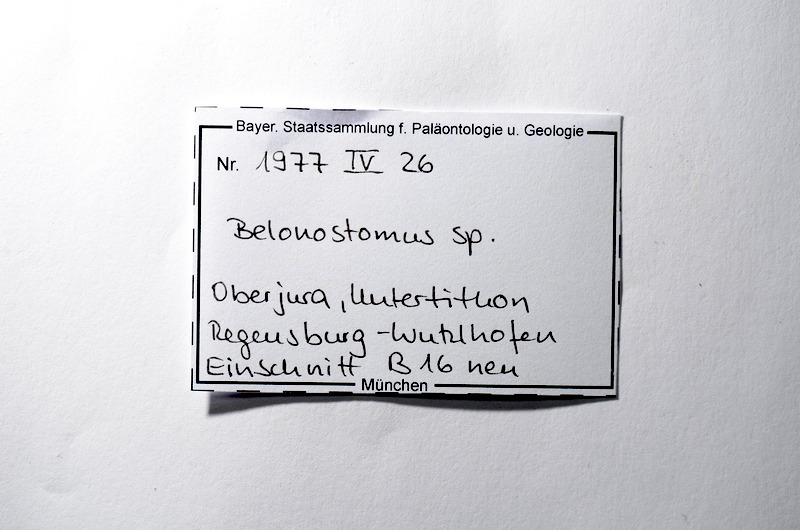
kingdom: Animalia
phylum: Chordata
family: Aspidorhynchidae
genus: Belonostomus
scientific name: Belonostomus
